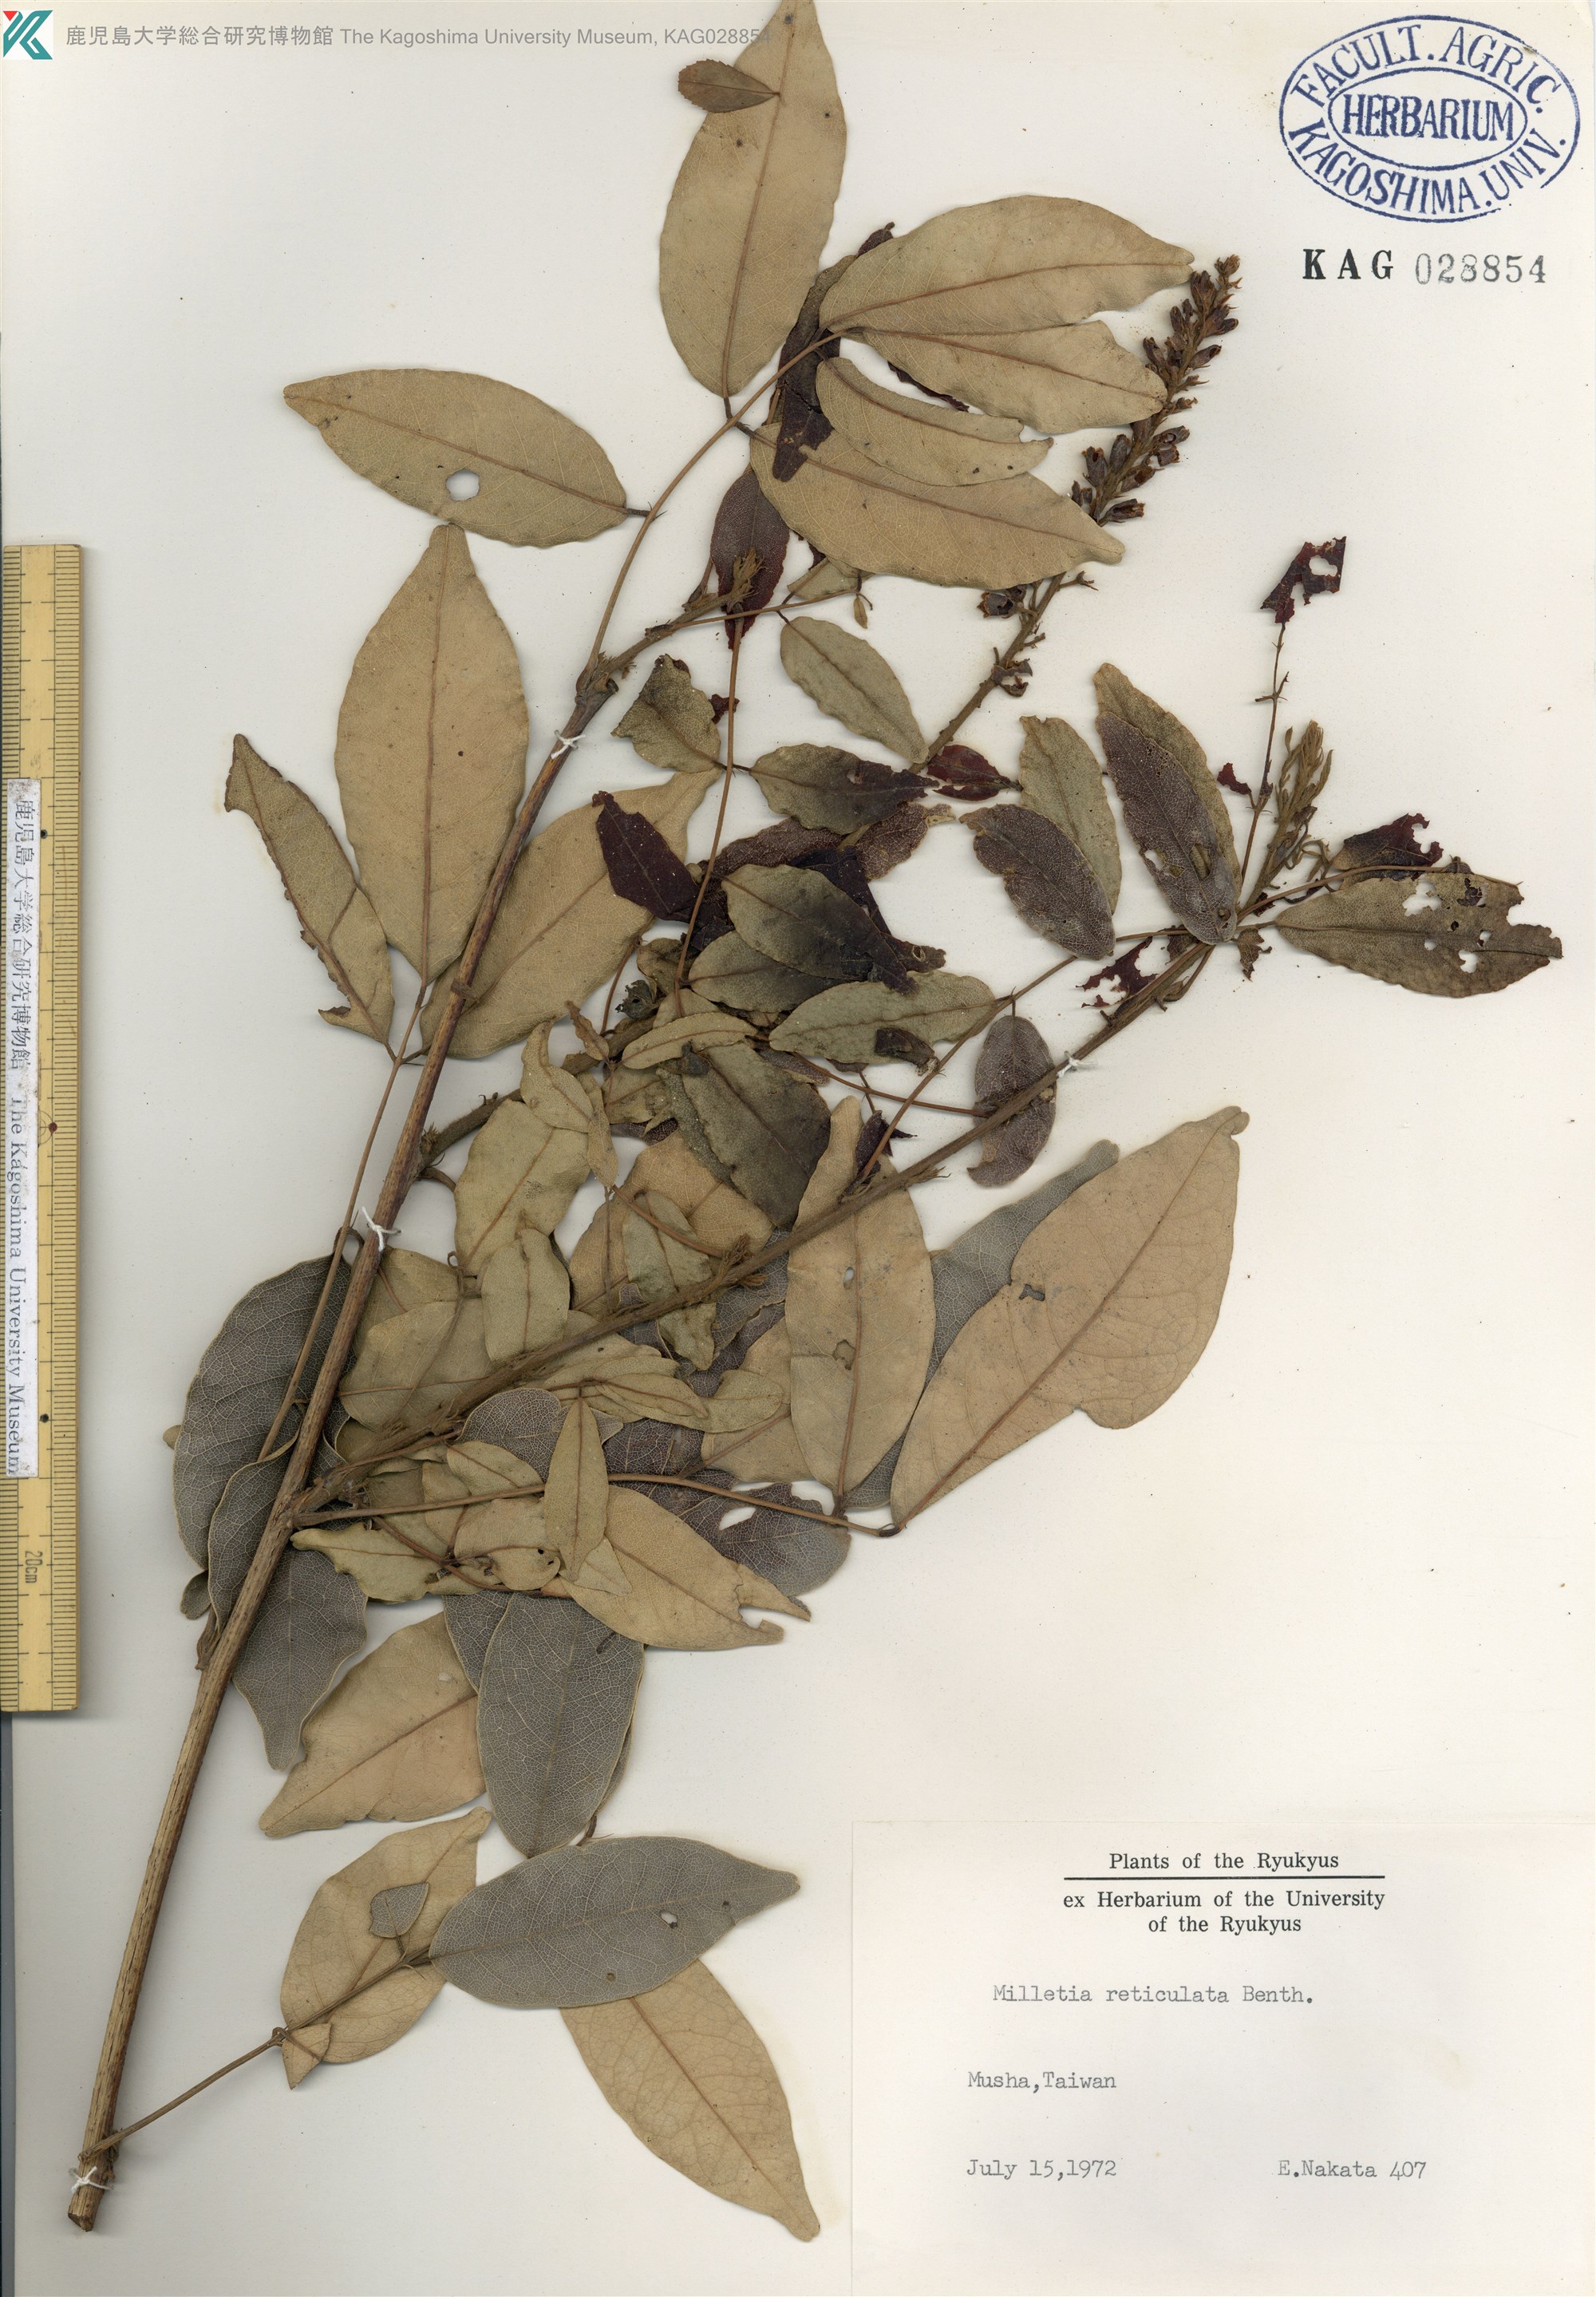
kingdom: Plantae
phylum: Tracheophyta
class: Magnoliopsida
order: Fabales
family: Fabaceae
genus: Wisteriopsis
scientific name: Wisteriopsis reticulata
